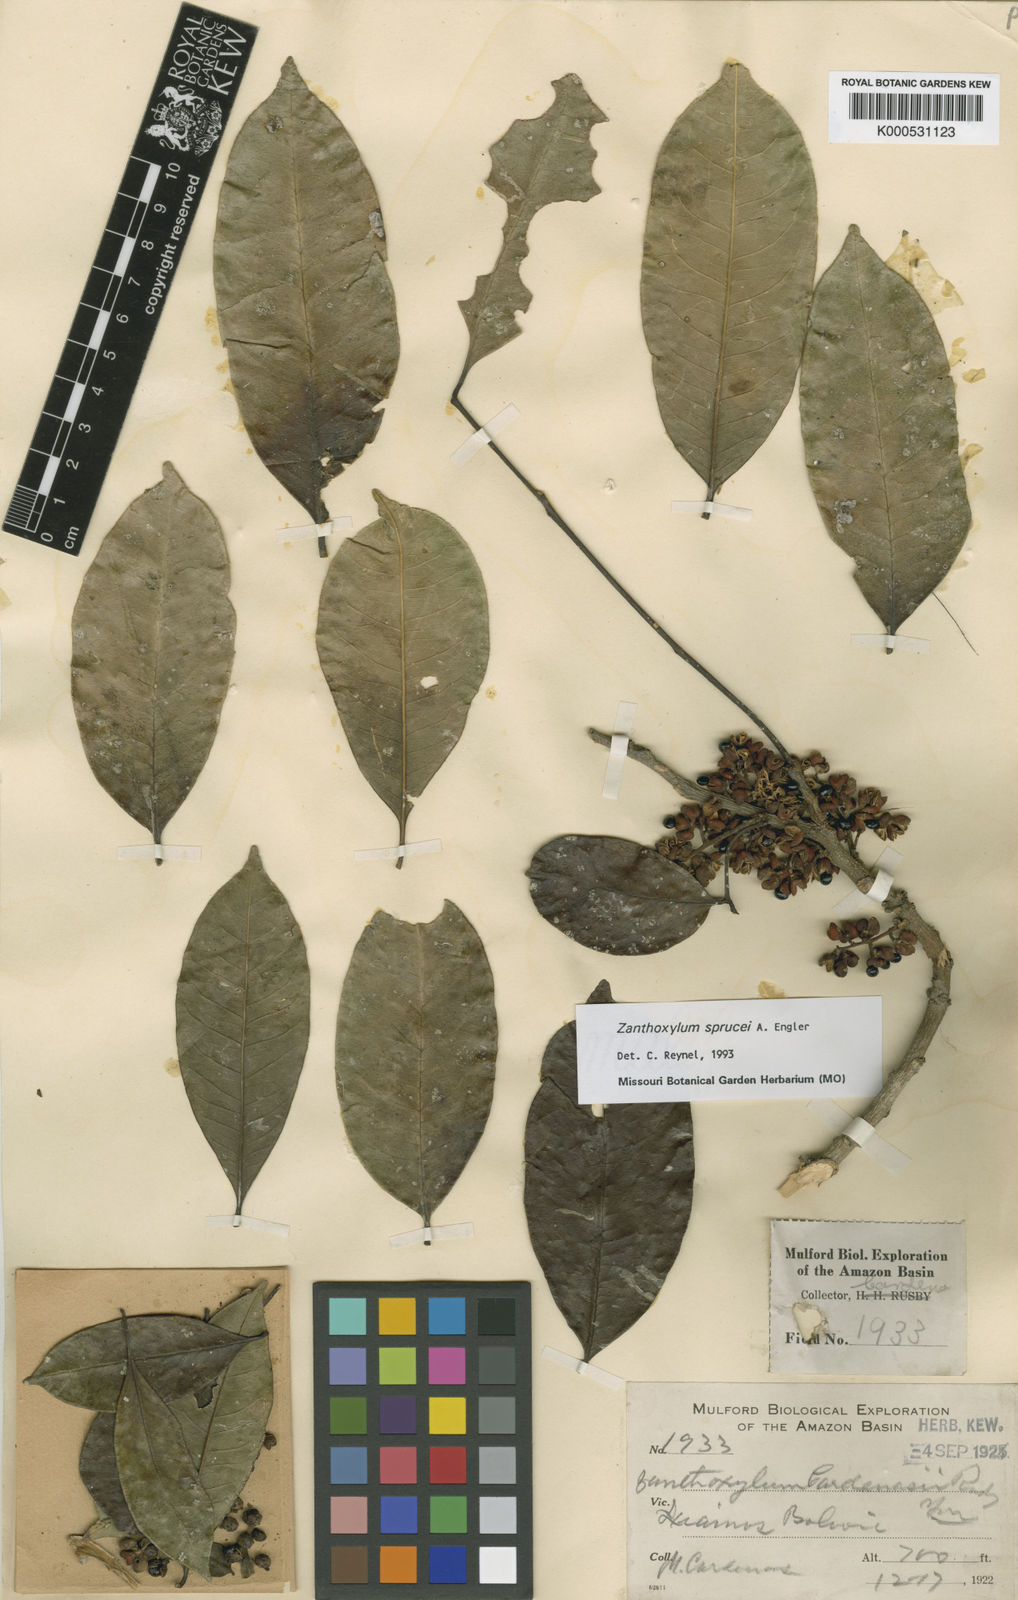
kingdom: Plantae
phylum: Tracheophyta
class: Magnoliopsida
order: Sapindales
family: Rutaceae
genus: Zanthoxylum
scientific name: Zanthoxylum sprucei
